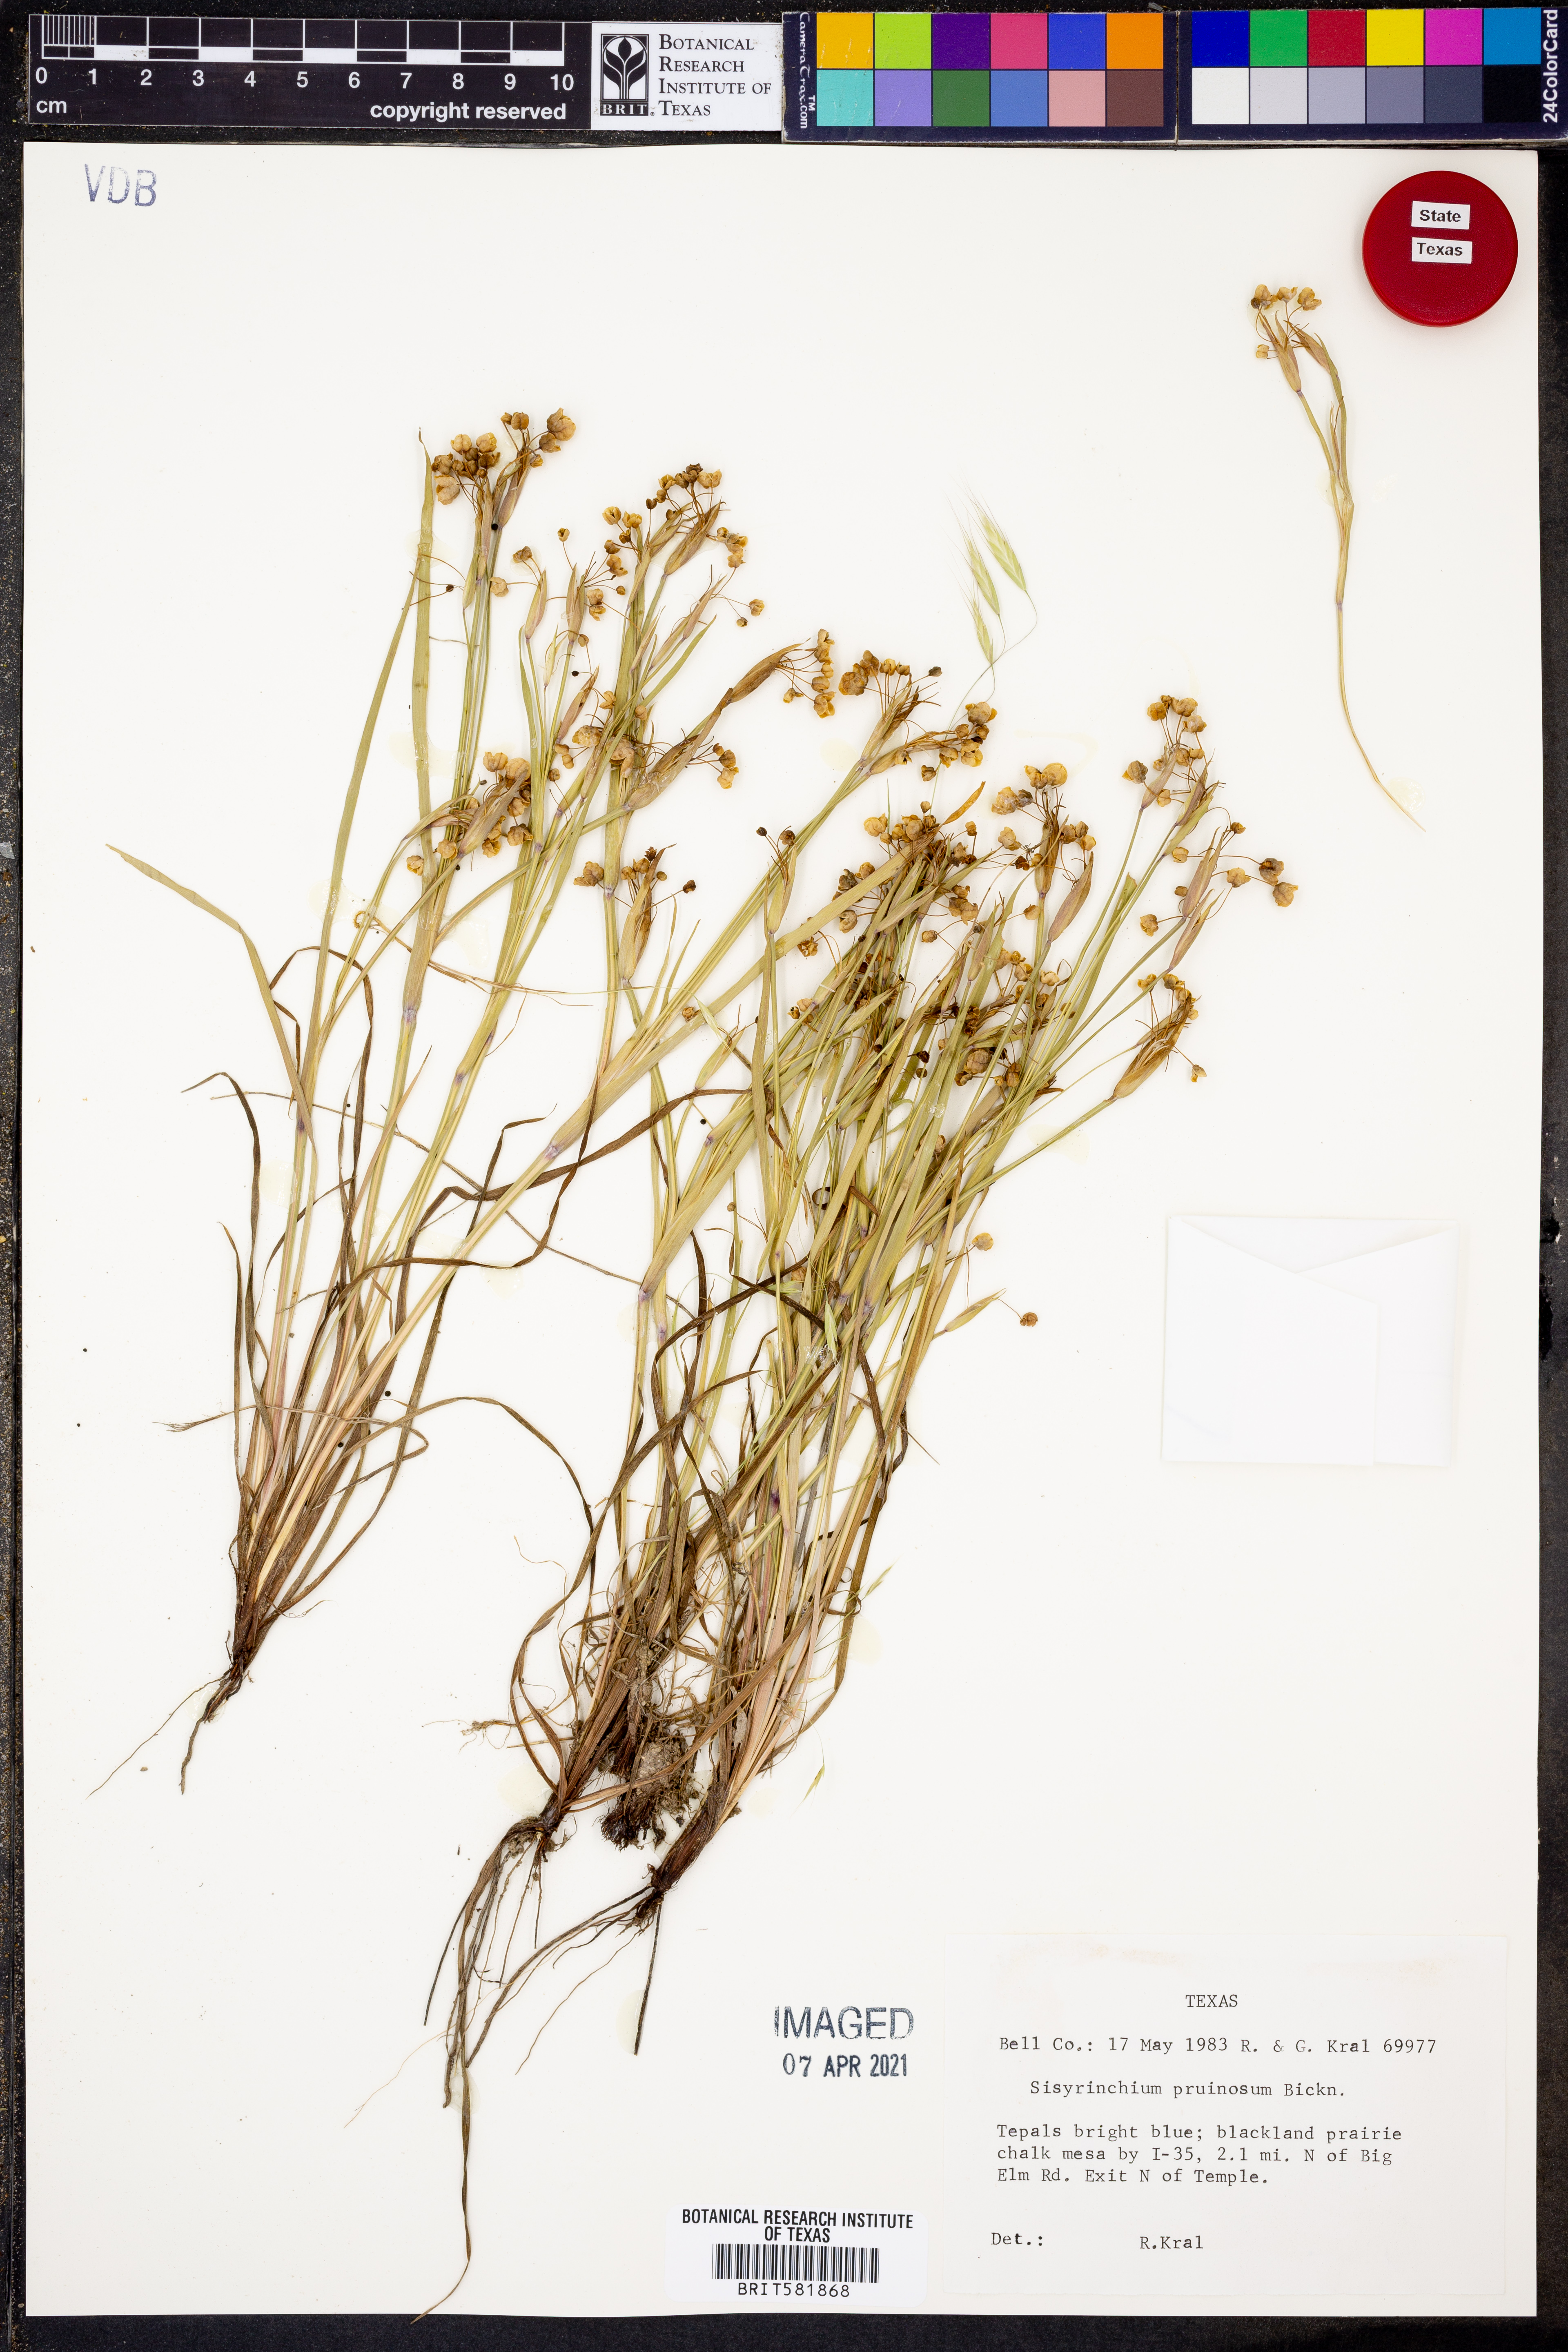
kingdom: Plantae
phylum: Tracheophyta
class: Liliopsida
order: Asparagales
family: Iridaceae
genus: Sisyrinchium
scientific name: Sisyrinchium pruinosum
